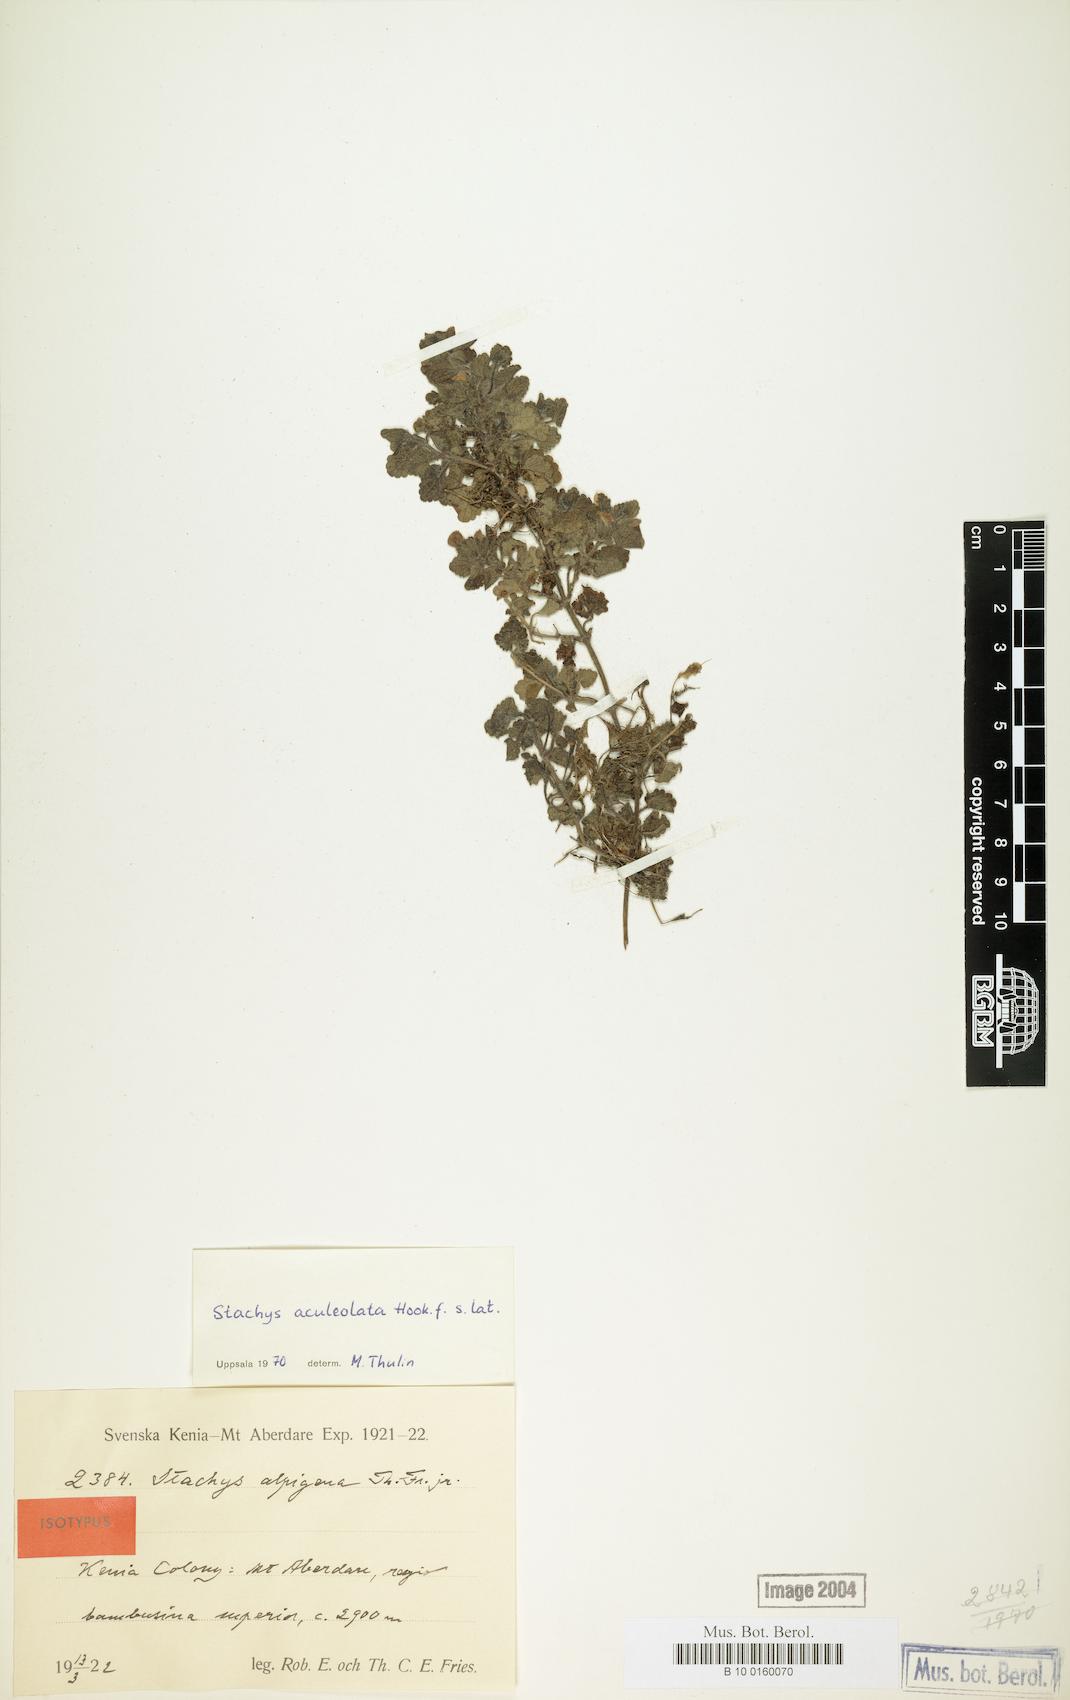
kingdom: Plantae
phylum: Tracheophyta
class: Magnoliopsida
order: Lamiales
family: Lamiaceae
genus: Stachys
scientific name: Stachys aculeolata
